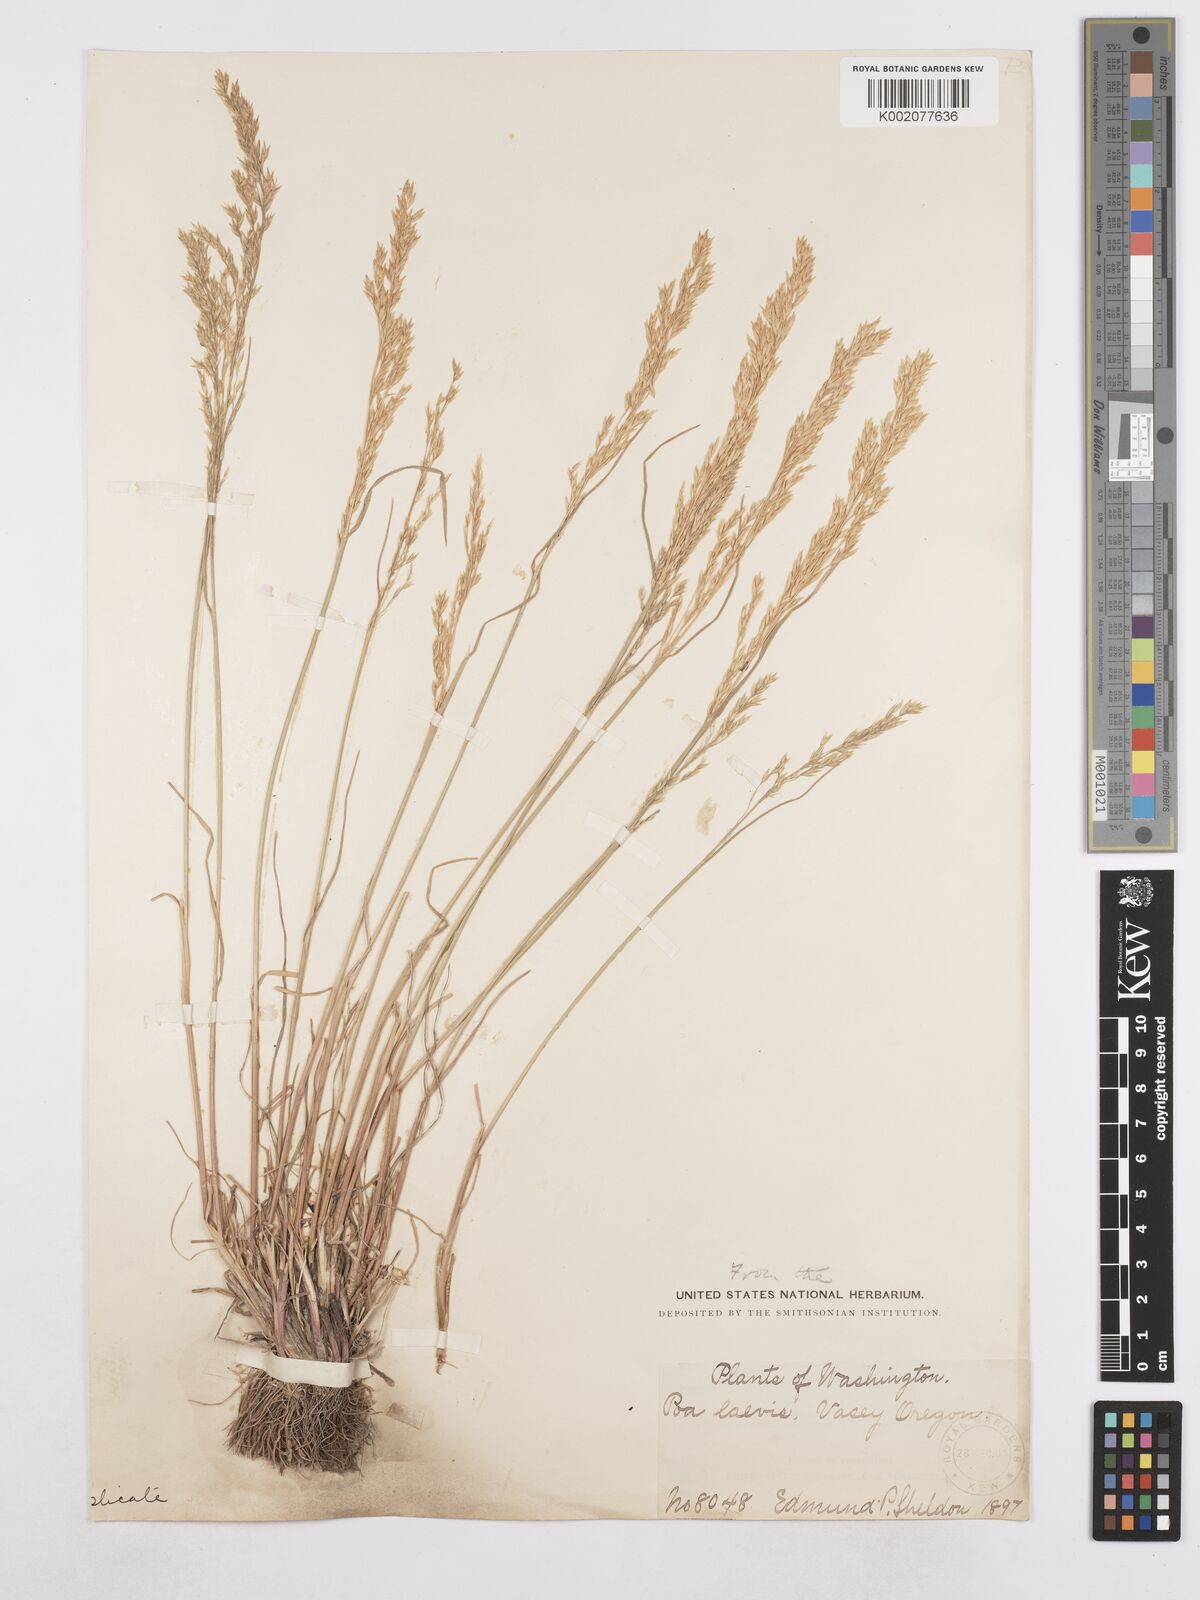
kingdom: Plantae
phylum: Tracheophyta
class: Liliopsida
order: Poales
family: Poaceae
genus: Poa
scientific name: Poa secunda
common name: Sandberg bluegrass
